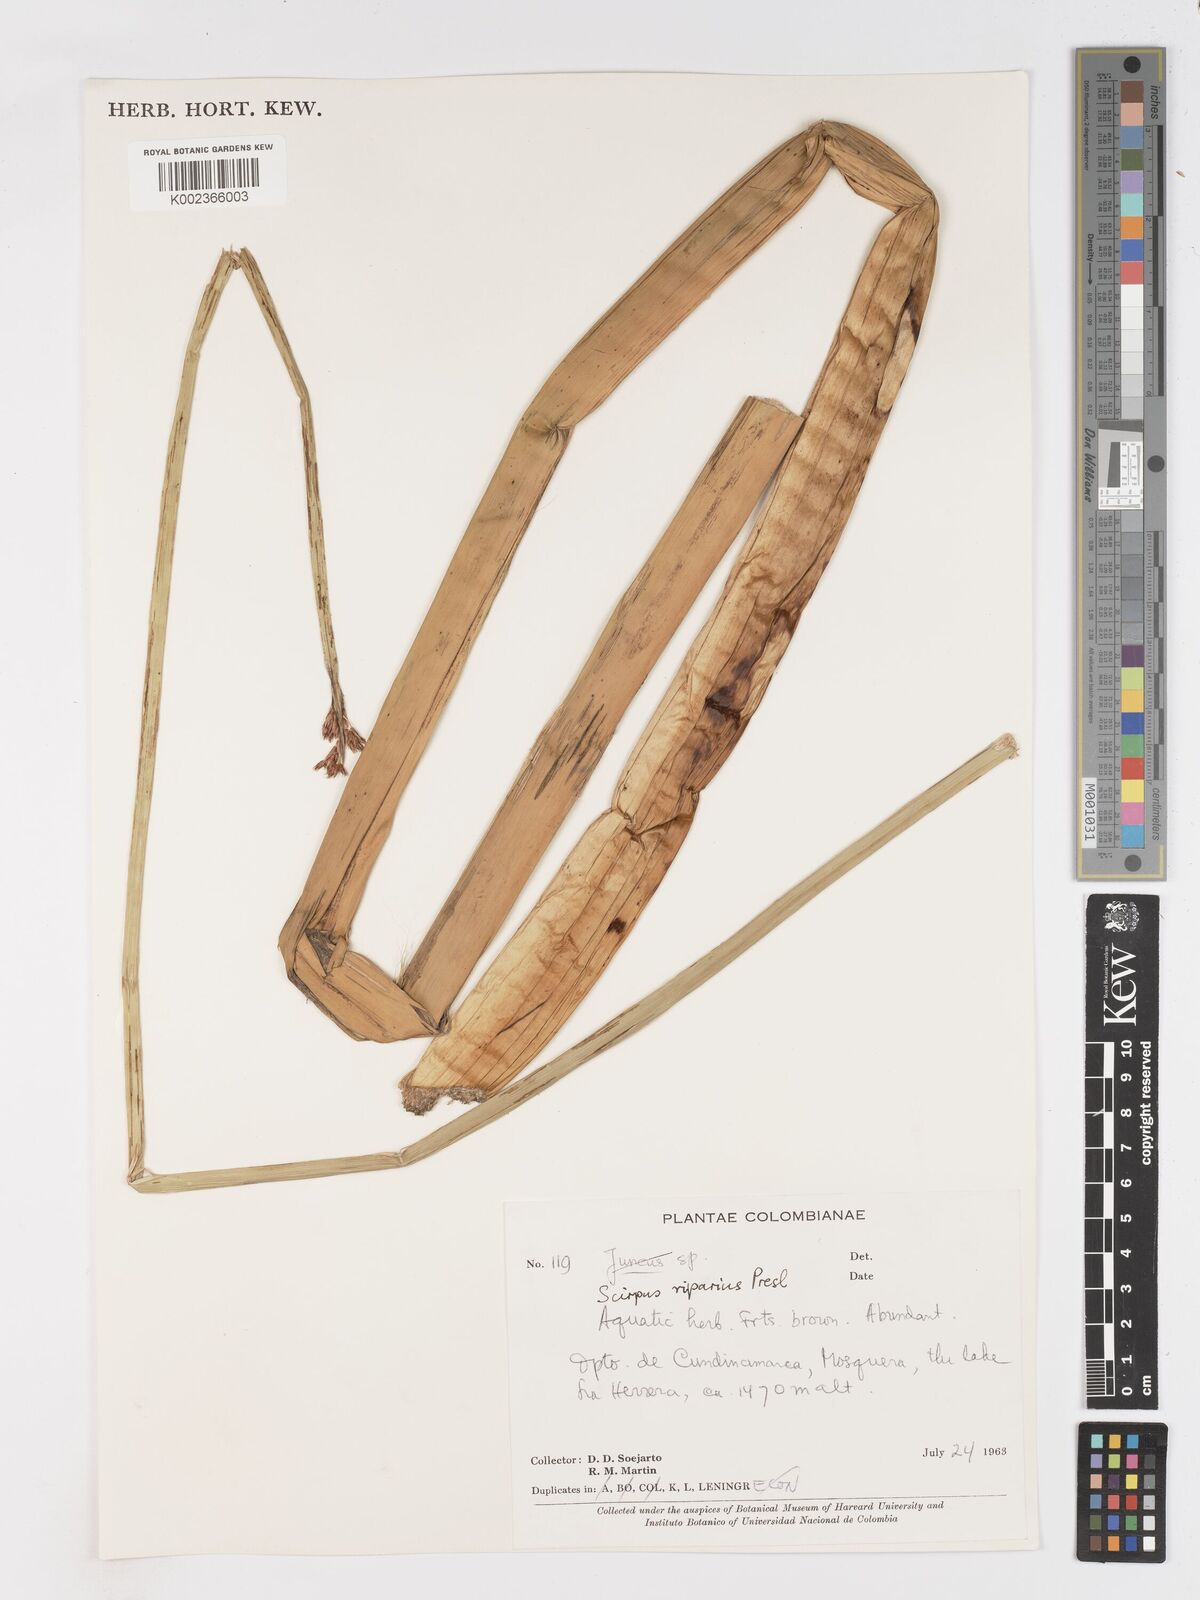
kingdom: Plantae
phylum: Tracheophyta
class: Liliopsida
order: Poales
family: Cyperaceae
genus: Schoenoplectus
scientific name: Schoenoplectus californicus
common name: California bulrush
